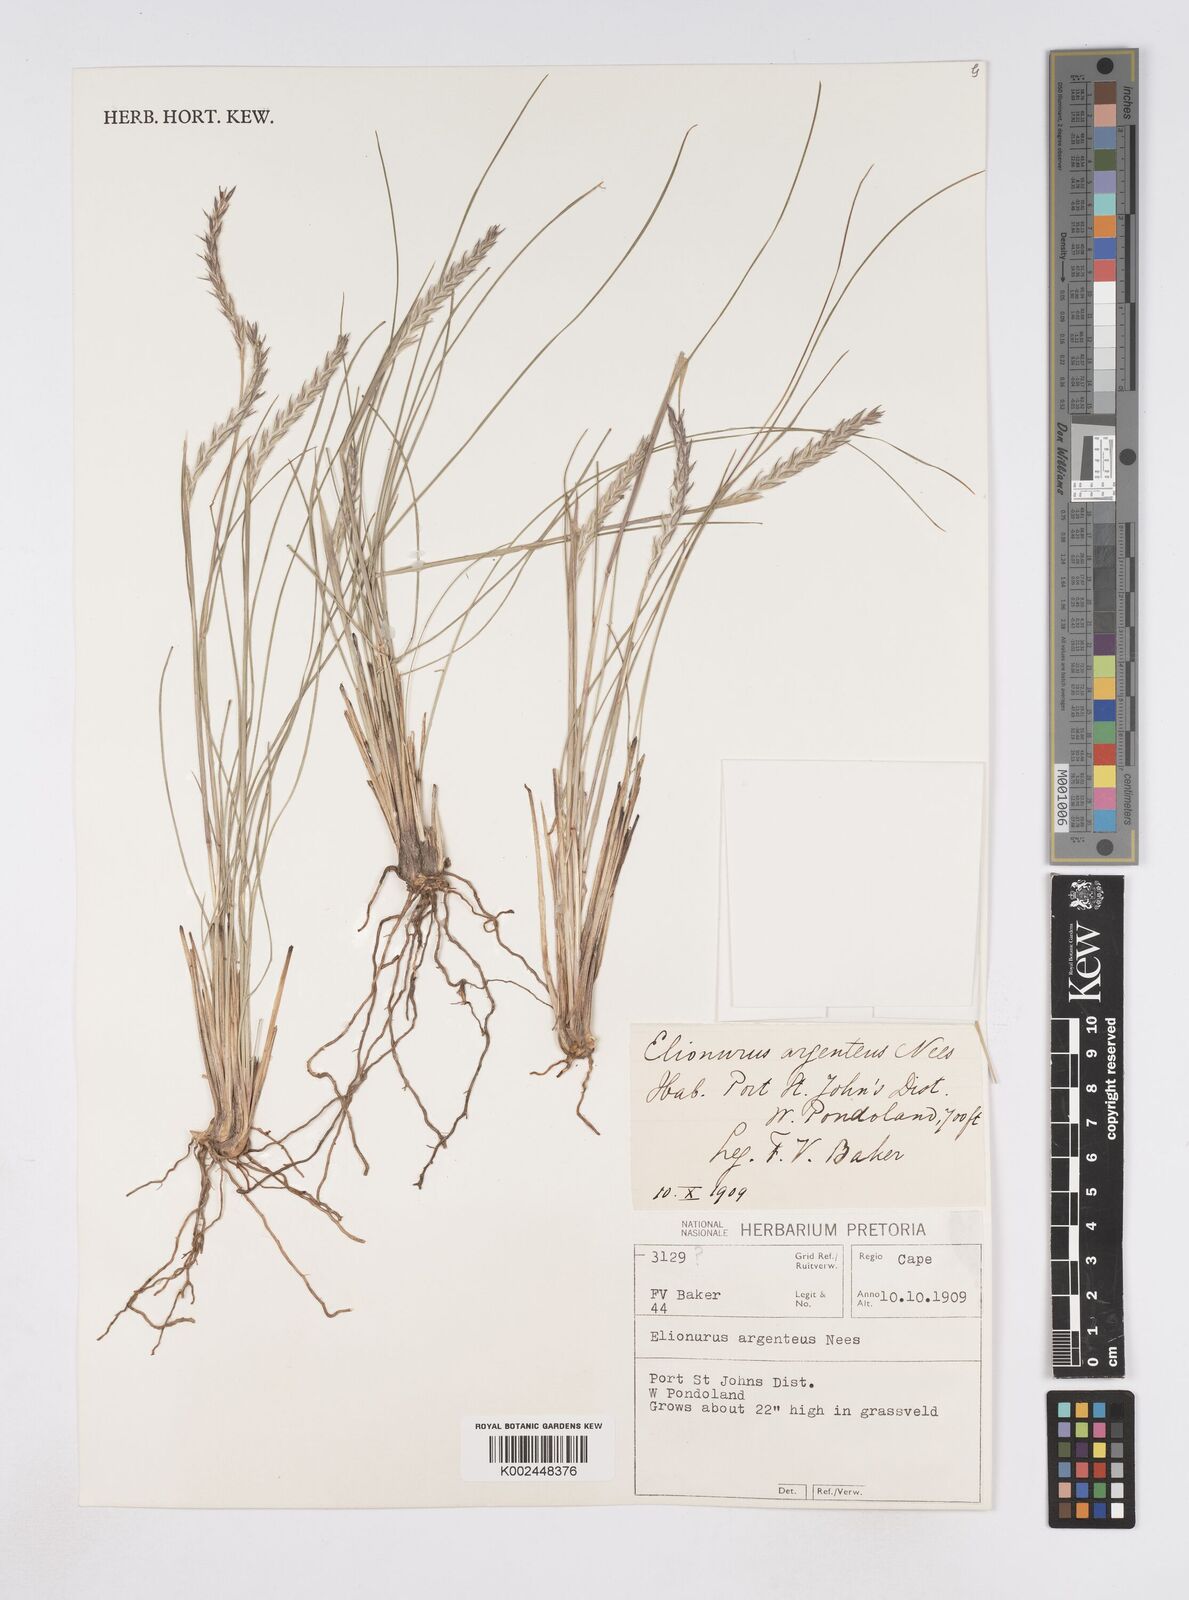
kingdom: Plantae
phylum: Tracheophyta
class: Liliopsida
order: Poales
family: Poaceae
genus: Elionurus
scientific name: Elionurus muticus
